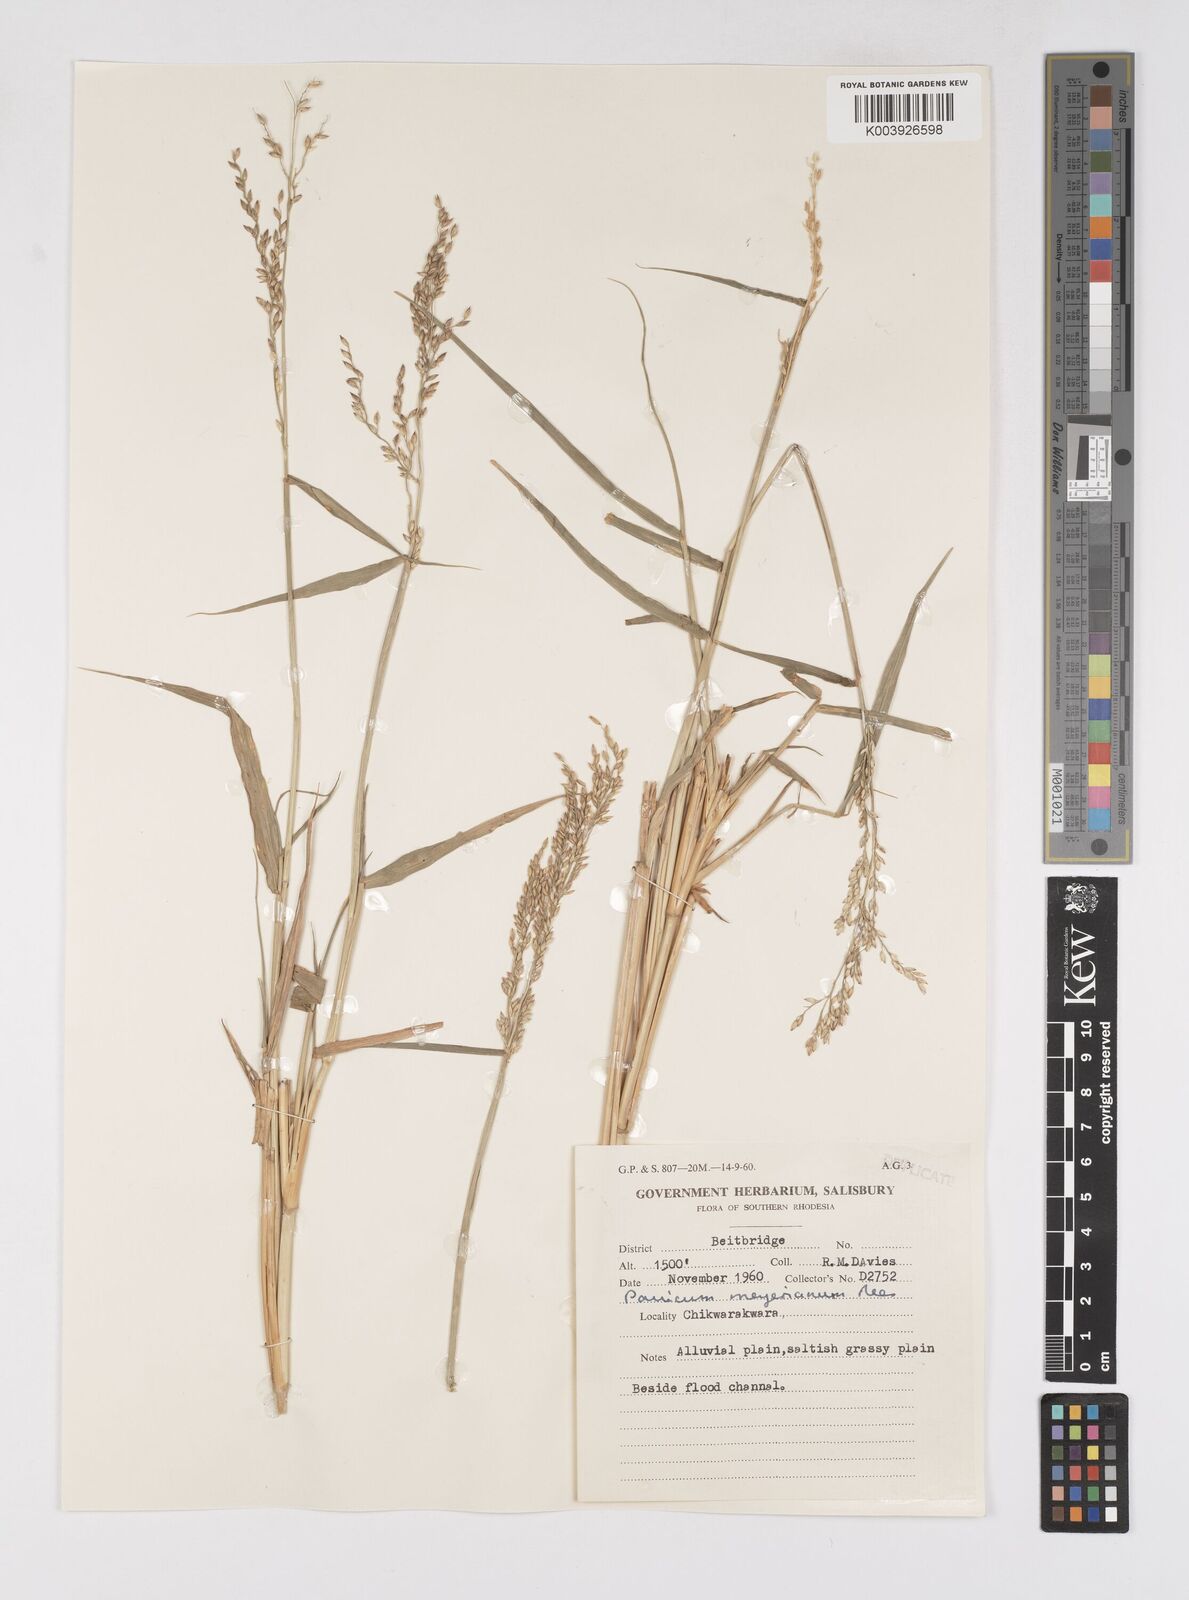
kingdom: Plantae
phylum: Tracheophyta
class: Liliopsida
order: Poales
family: Poaceae
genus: Eriochloa
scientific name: Eriochloa meyeriana
